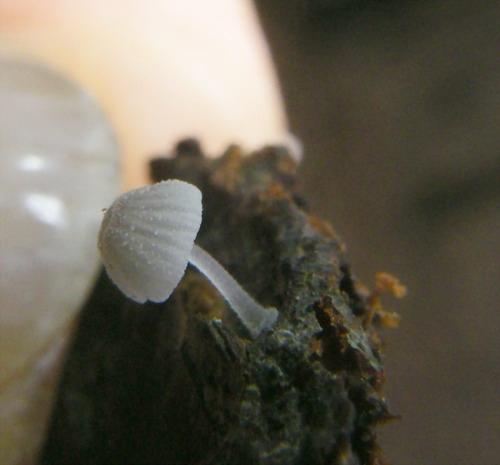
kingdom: Fungi
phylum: Basidiomycota
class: Agaricomycetes
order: Agaricales
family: Mycenaceae
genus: Mycena
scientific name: Mycena tenerrima
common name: pudret huesvamp
